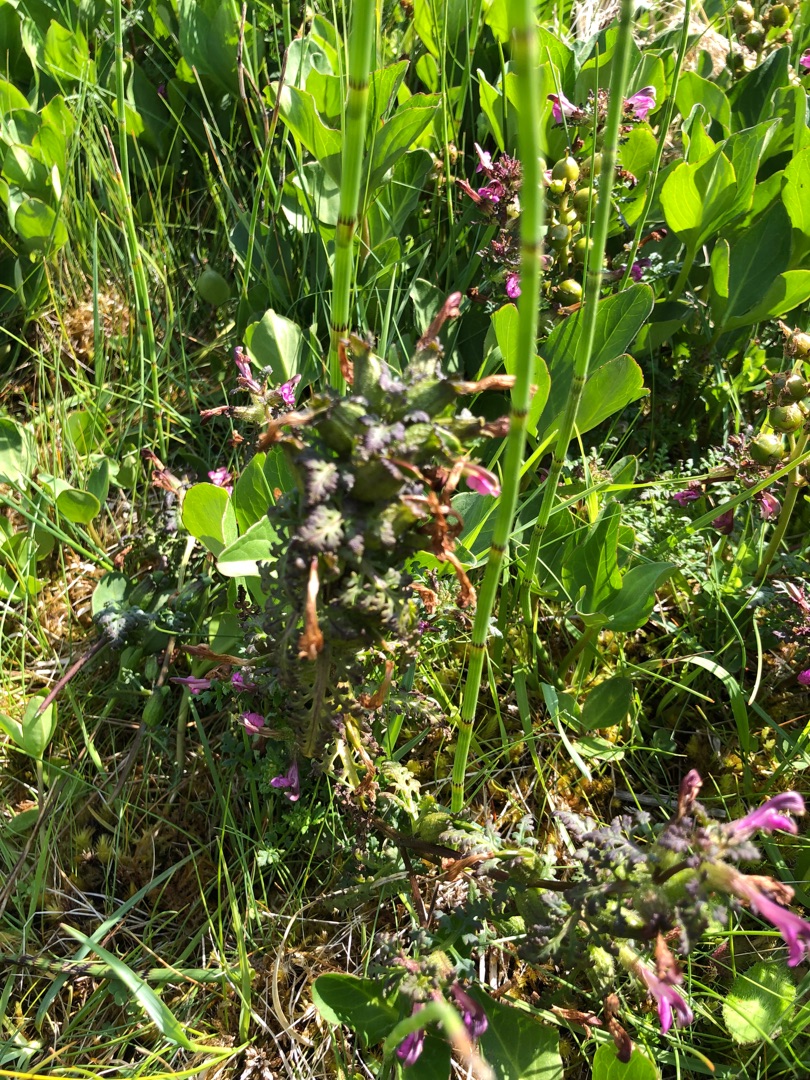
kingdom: Plantae
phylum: Tracheophyta
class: Magnoliopsida
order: Lamiales
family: Orobanchaceae
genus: Pedicularis
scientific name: Pedicularis palustris
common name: Eng-troldurt
